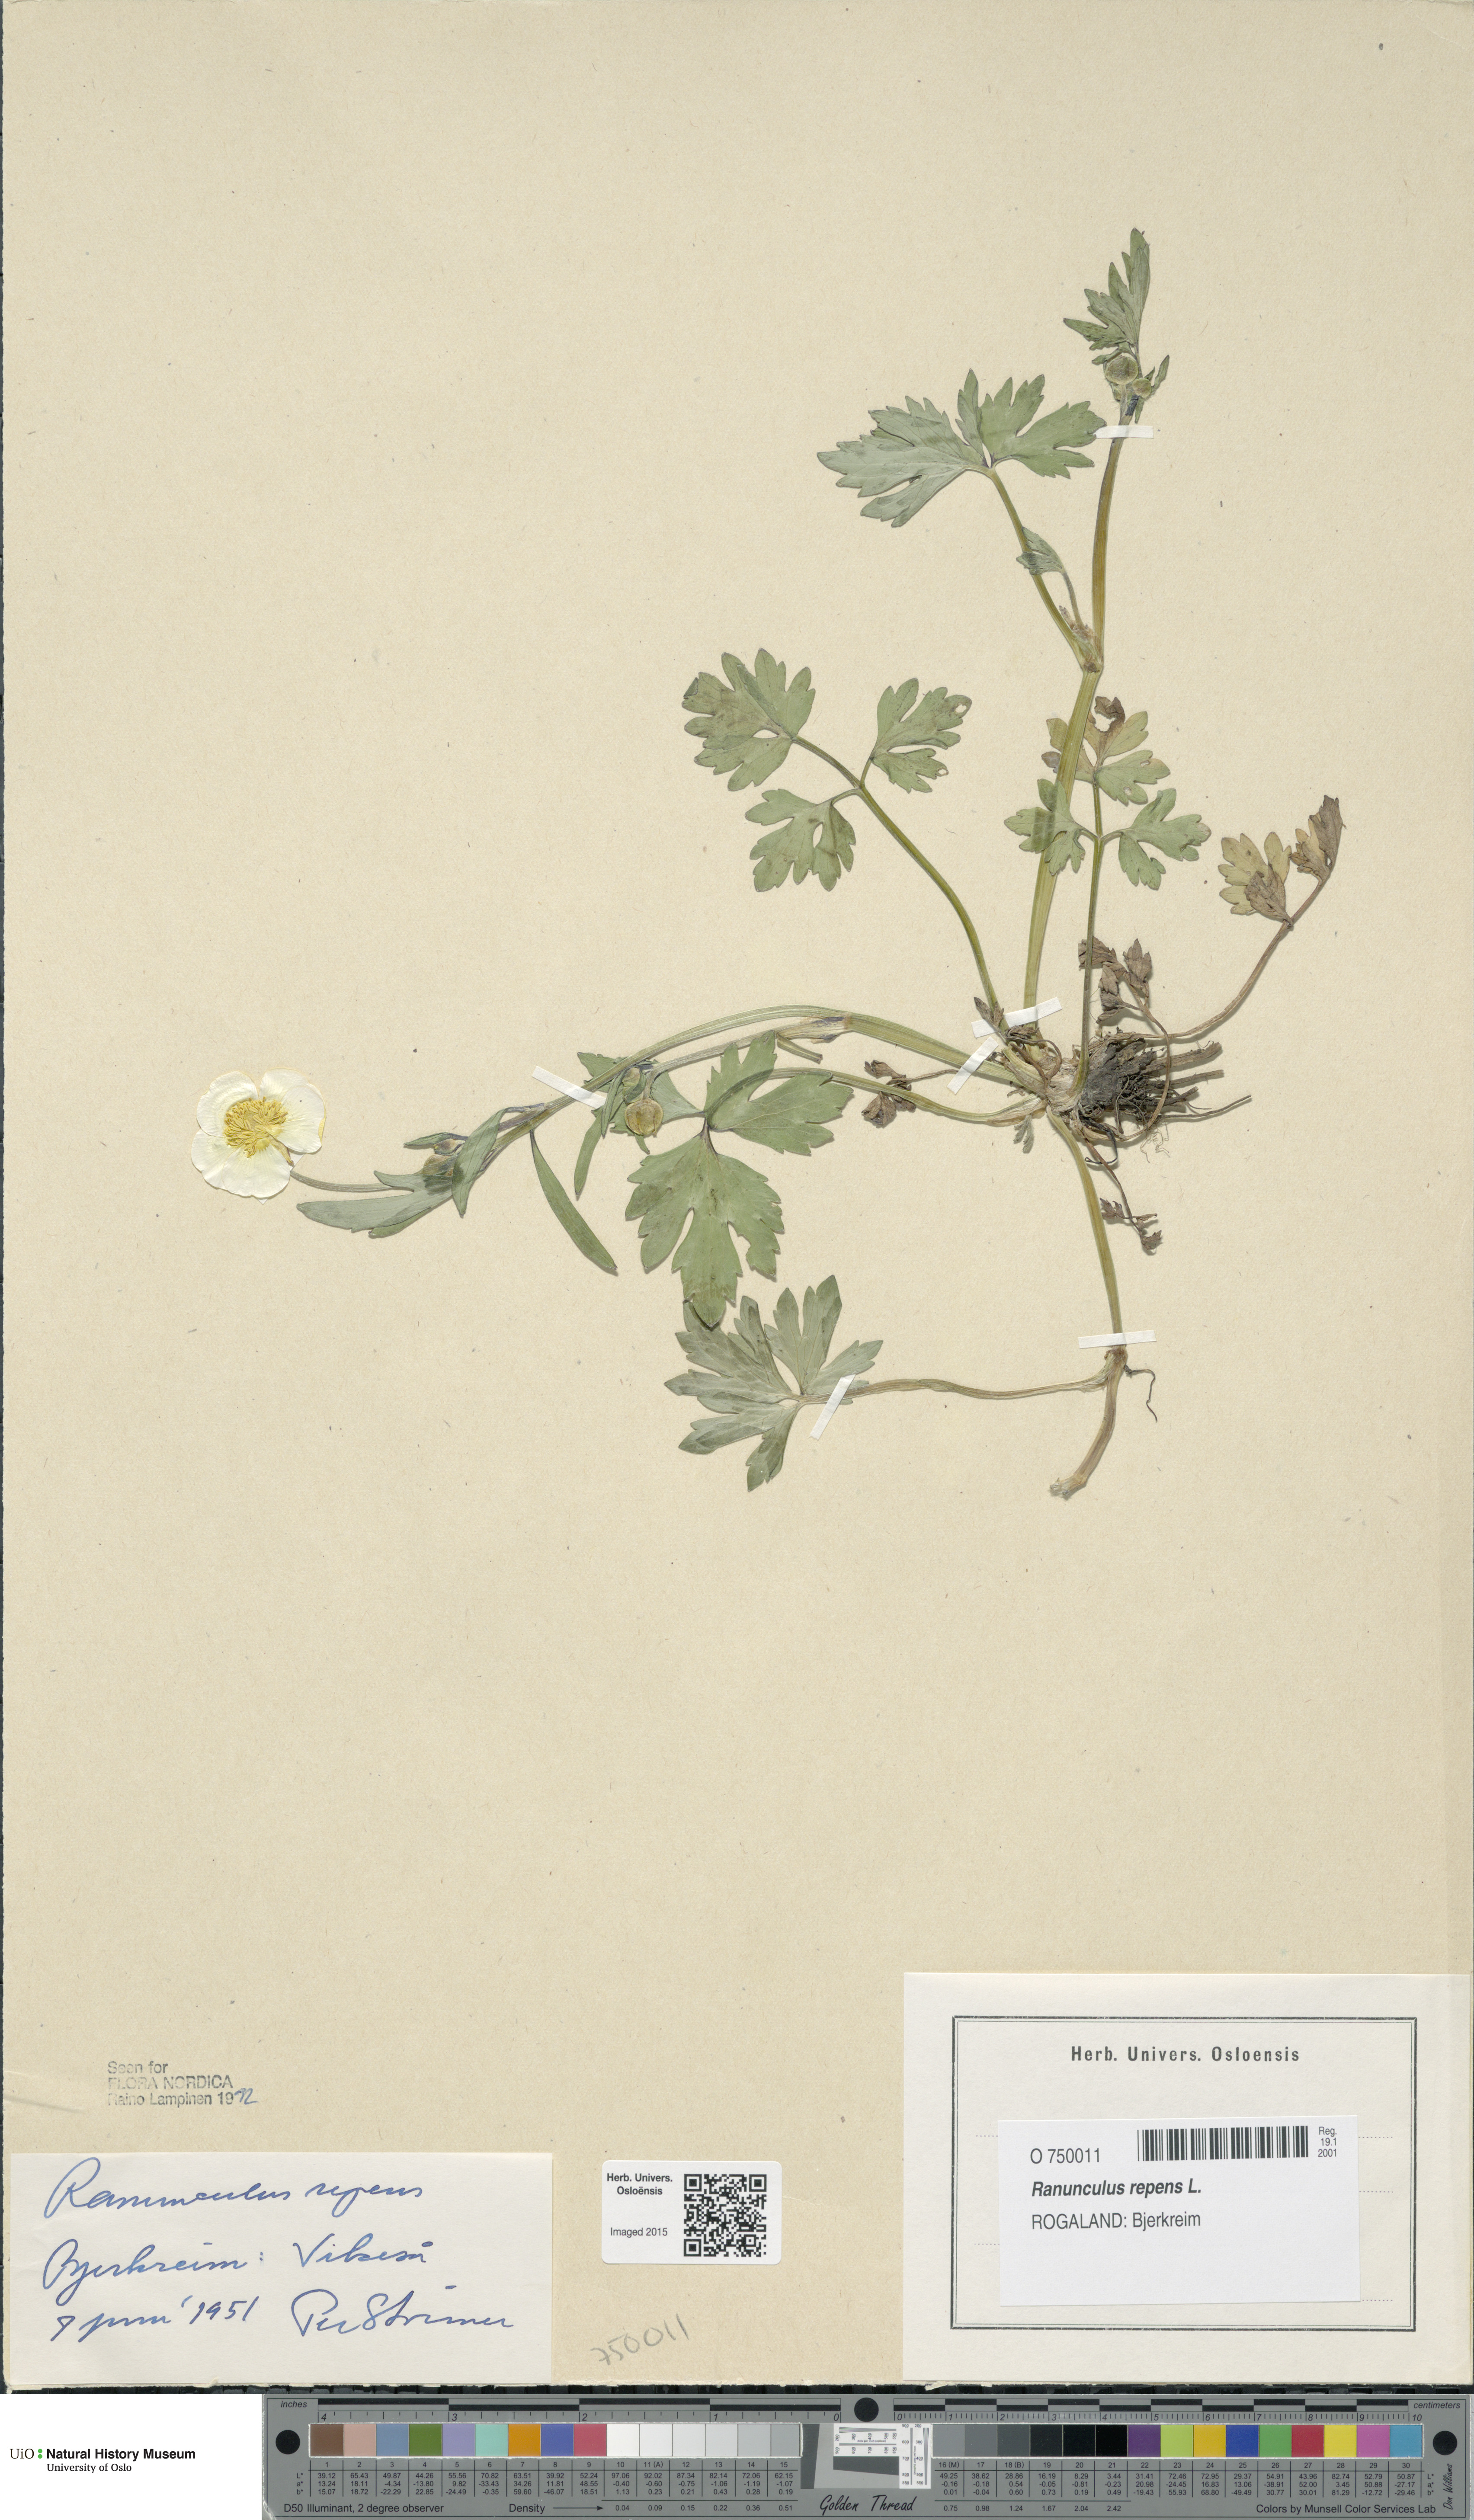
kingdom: Plantae
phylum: Tracheophyta
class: Magnoliopsida
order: Ranunculales
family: Ranunculaceae
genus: Ranunculus
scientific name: Ranunculus repens
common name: Creeping buttercup
